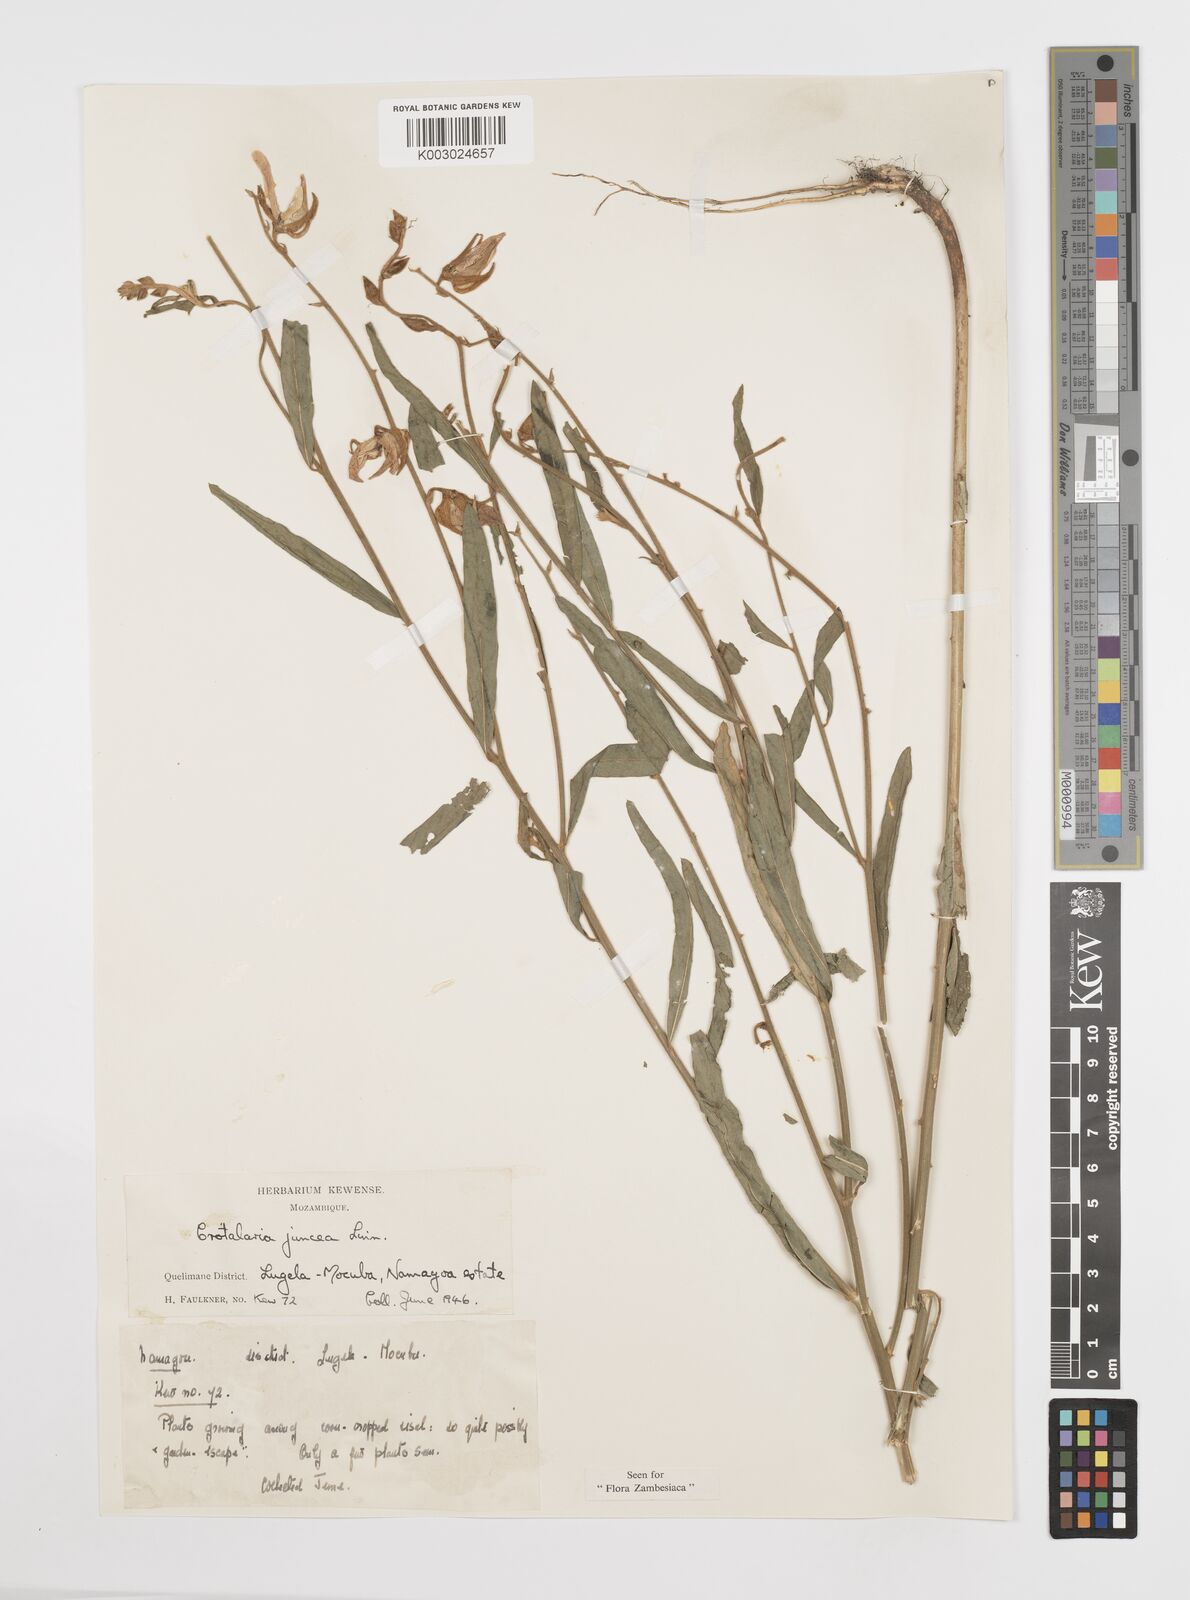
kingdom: Plantae
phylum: Tracheophyta
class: Magnoliopsida
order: Fabales
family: Fabaceae
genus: Crotalaria
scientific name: Crotalaria juncea
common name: Sunn hemp
